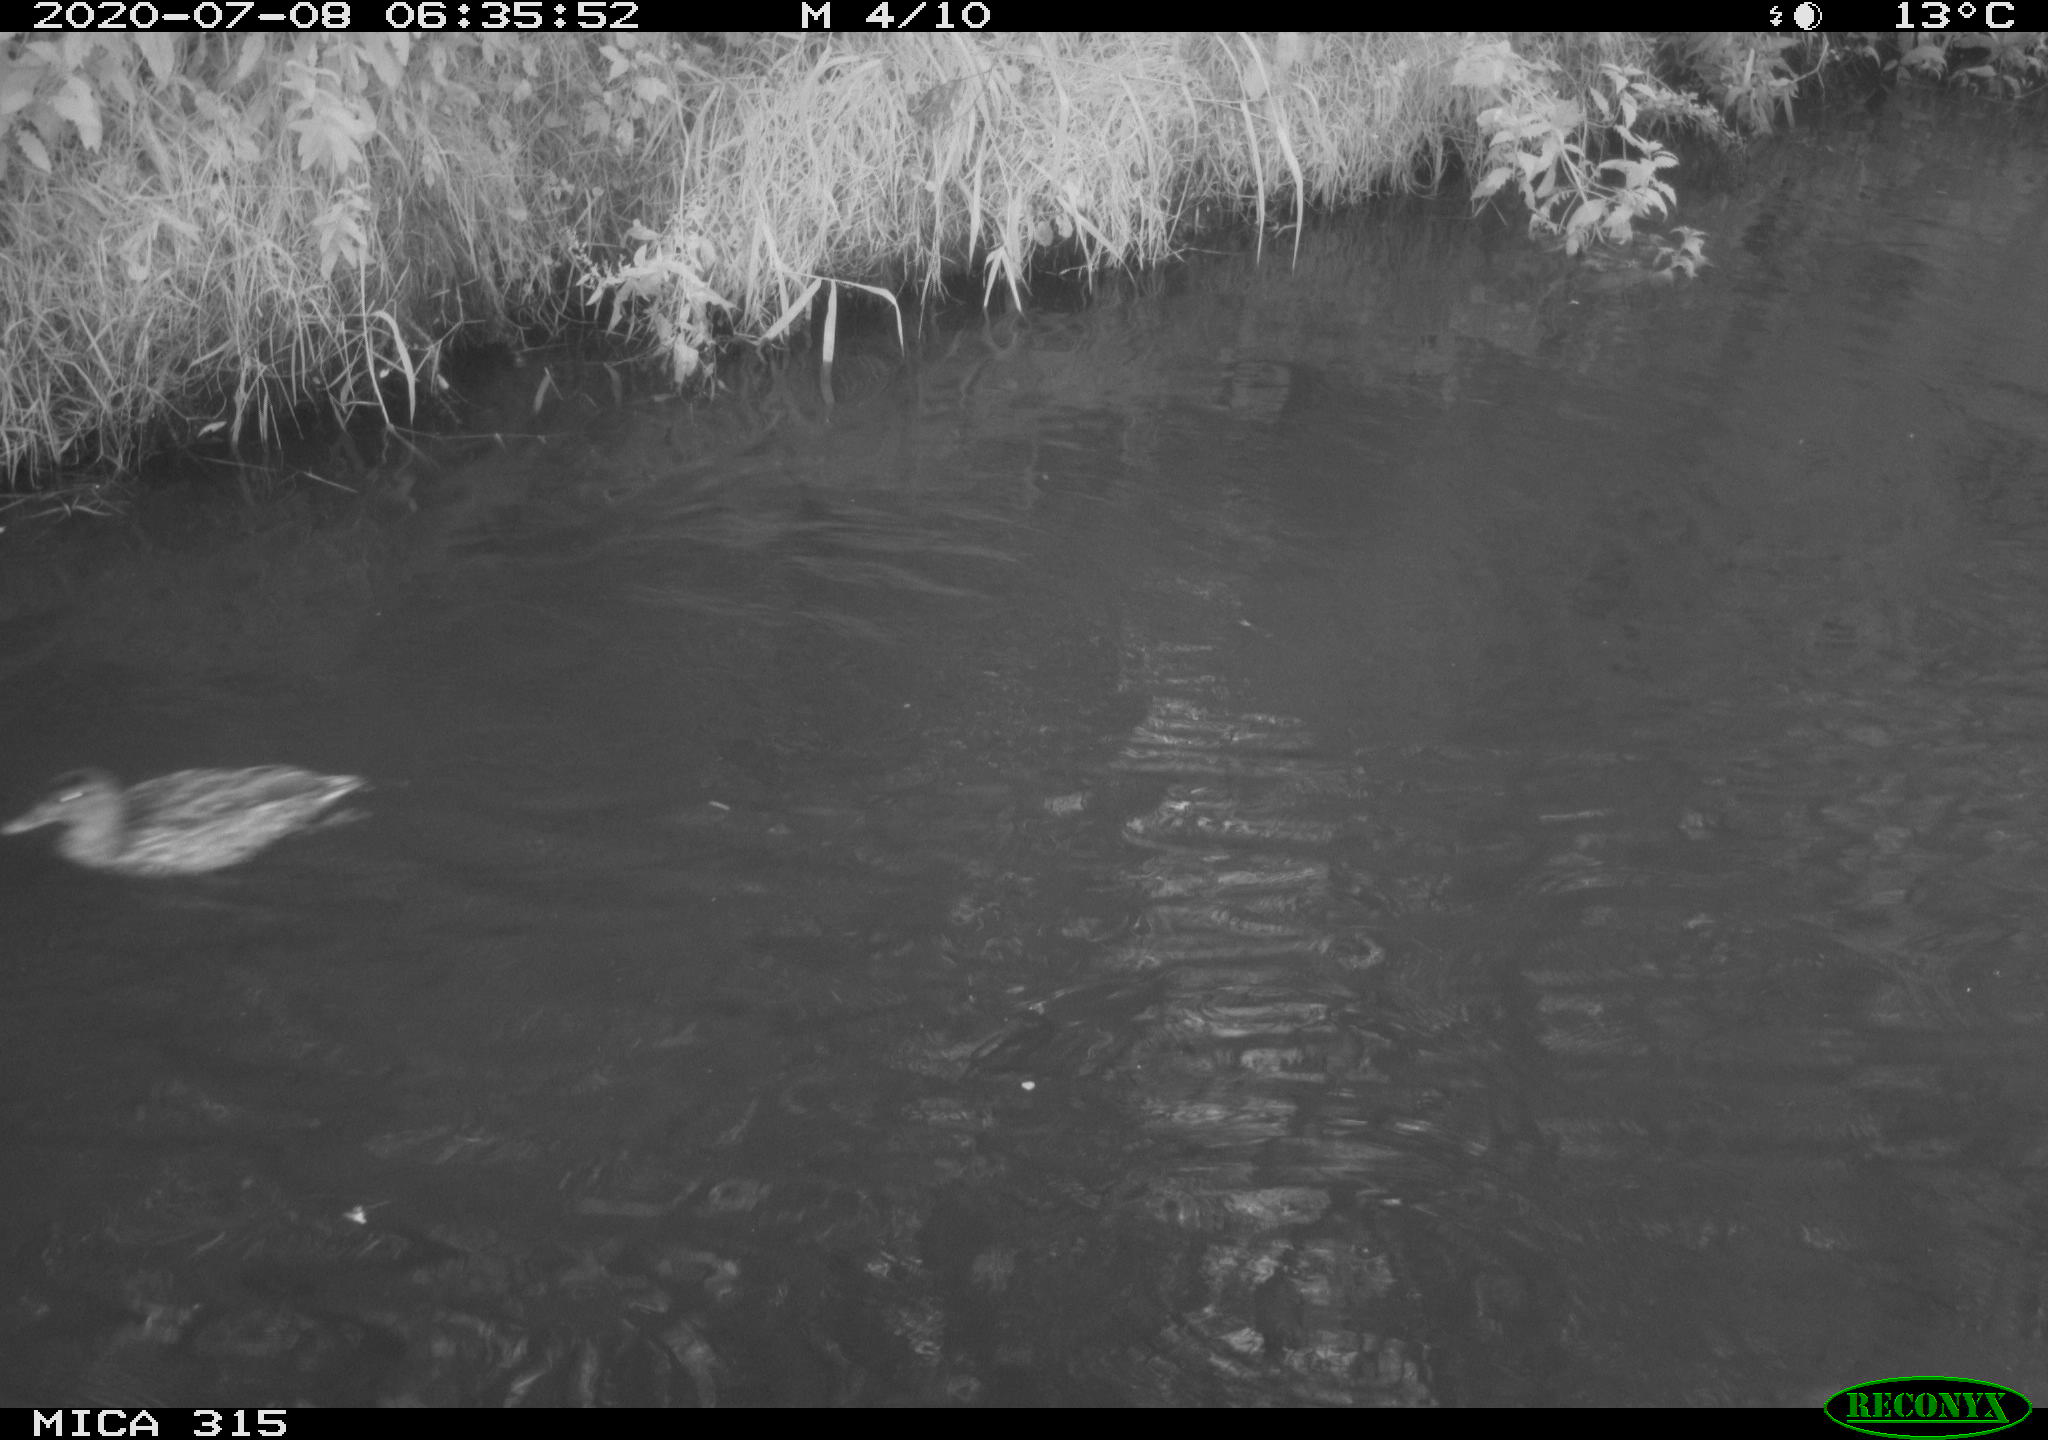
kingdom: Animalia
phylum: Chordata
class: Aves
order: Anseriformes
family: Anatidae
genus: Anas
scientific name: Anas platyrhynchos
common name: Mallard
